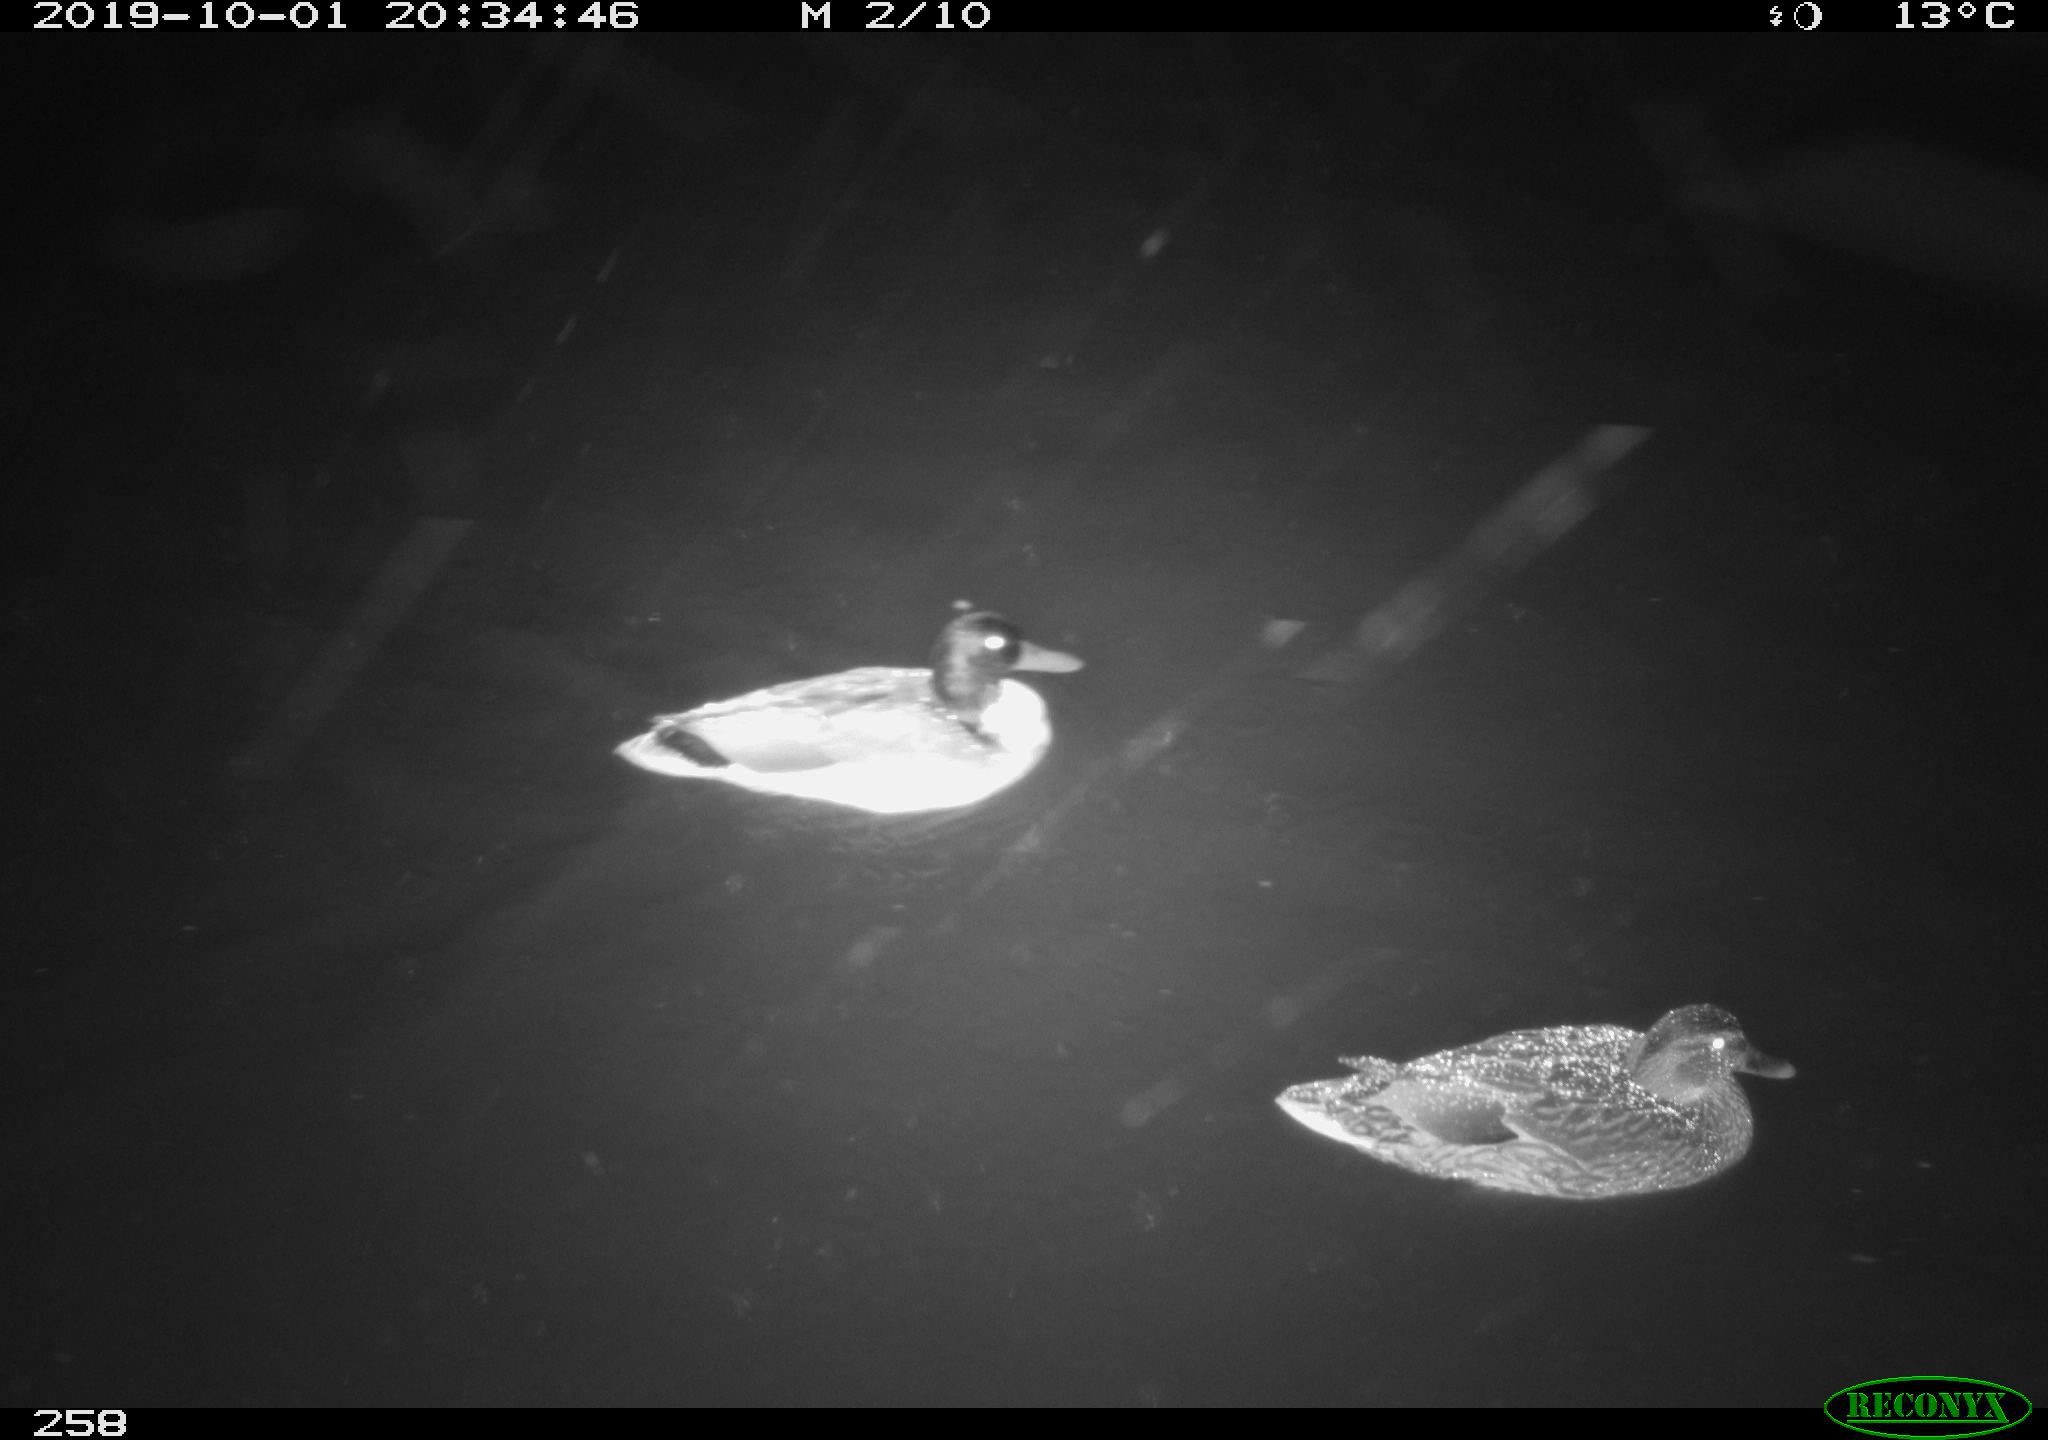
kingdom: Animalia
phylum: Chordata
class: Aves
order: Anseriformes
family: Anatidae
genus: Anas
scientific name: Anas platyrhynchos
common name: Mallard
